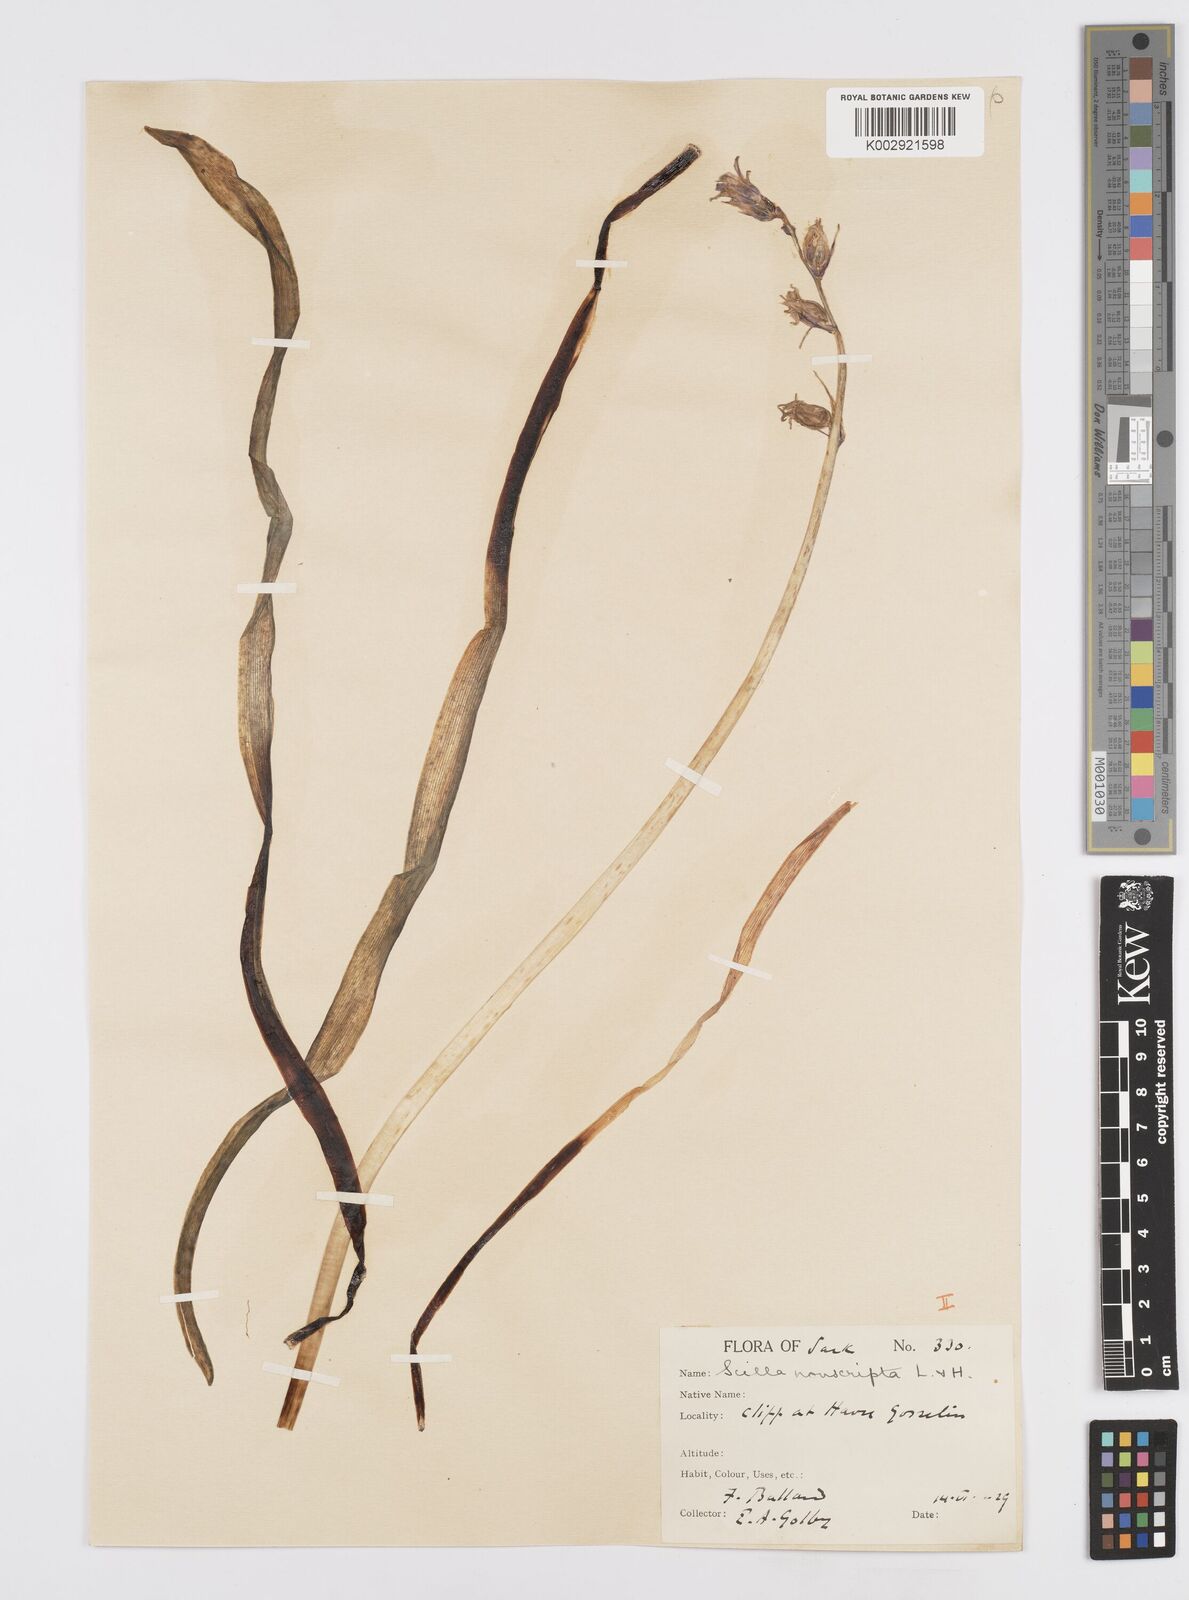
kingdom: Plantae
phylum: Tracheophyta
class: Liliopsida
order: Asparagales
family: Asparagaceae
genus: Hyacinthoides
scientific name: Hyacinthoides non-scripta
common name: Bluebell
